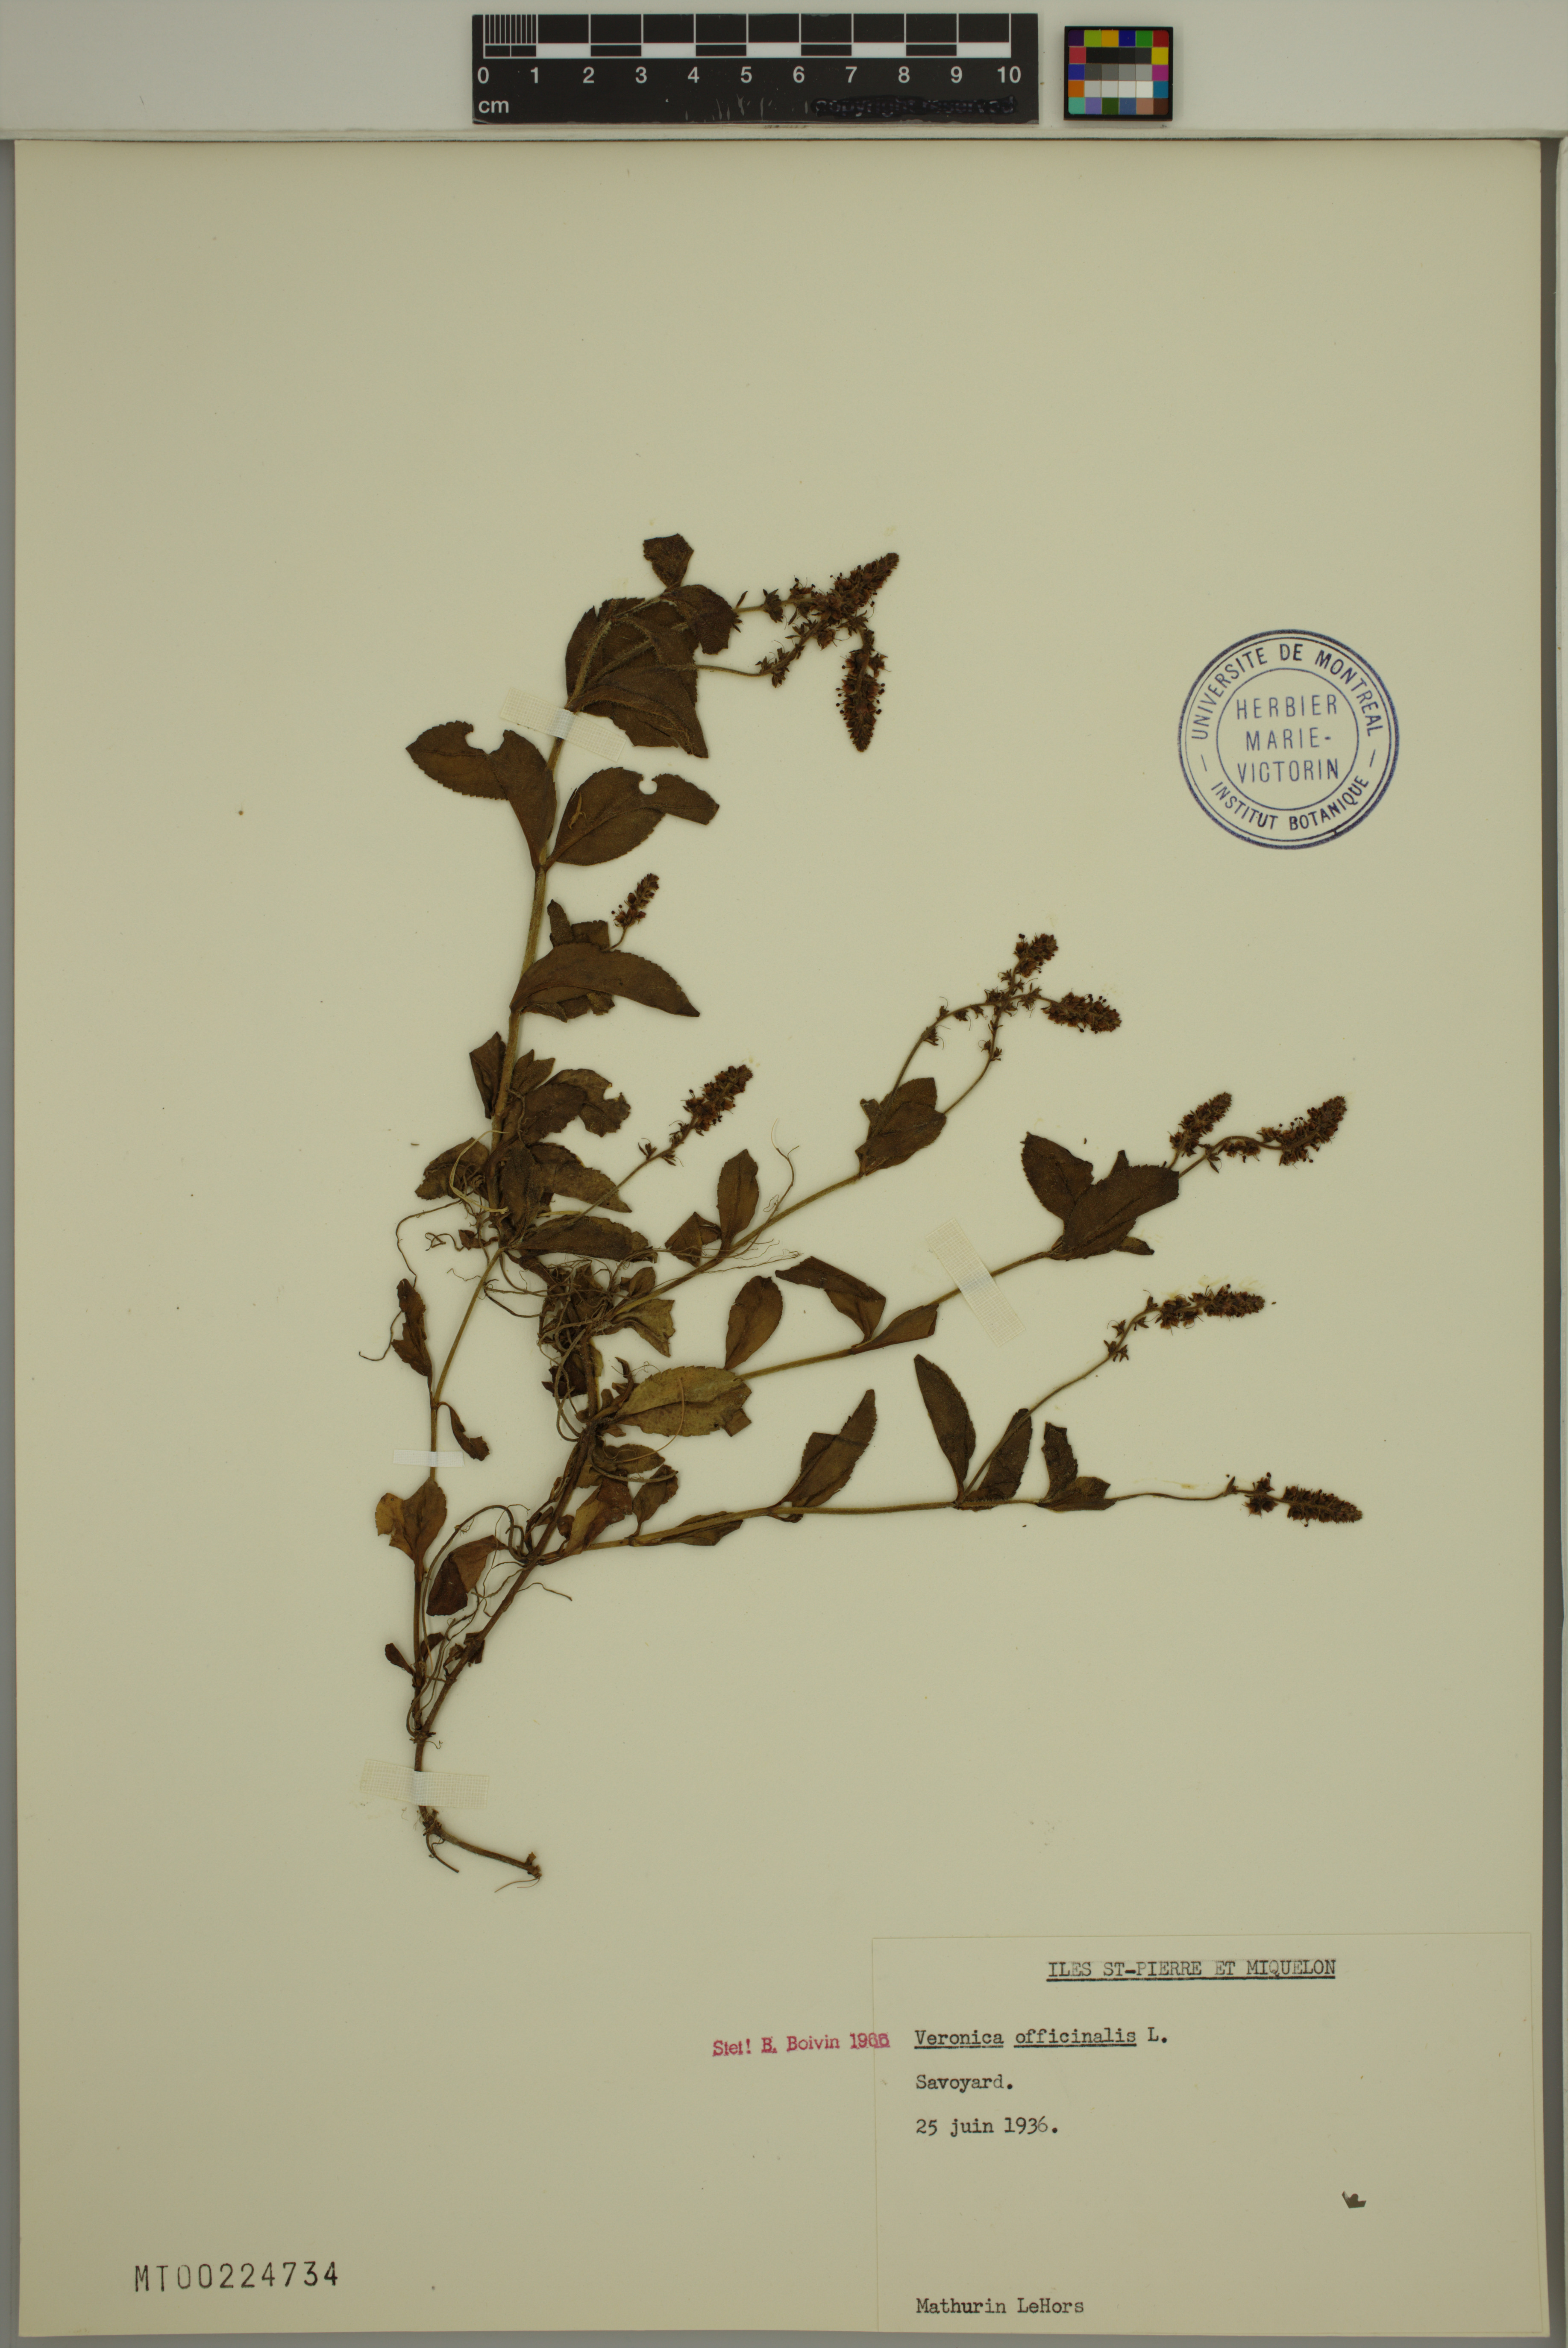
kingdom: Plantae
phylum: Tracheophyta
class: Magnoliopsida
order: Lamiales
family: Plantaginaceae
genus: Veronica
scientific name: Veronica officinalis
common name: Common speedwell
